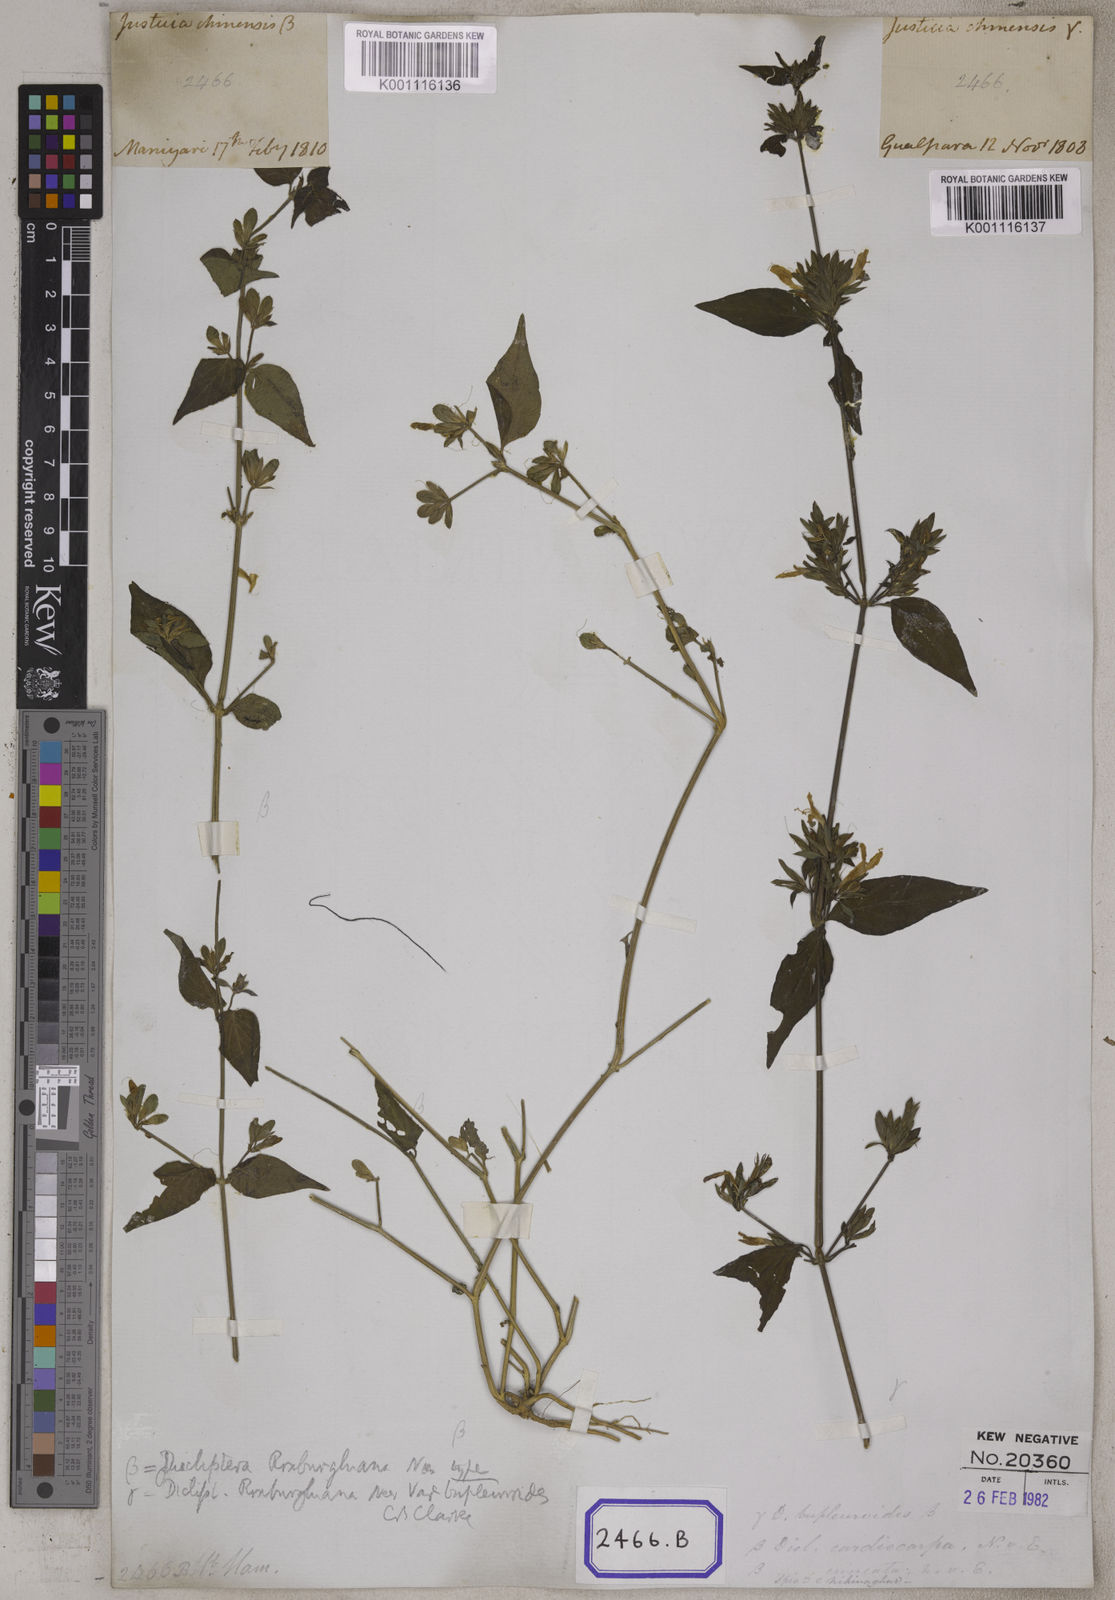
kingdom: Plantae
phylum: Tracheophyta
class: Magnoliopsida
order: Lamiales
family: Acanthaceae
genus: Dicliptera
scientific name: Dicliptera chinensis
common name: Chinese foldwing
